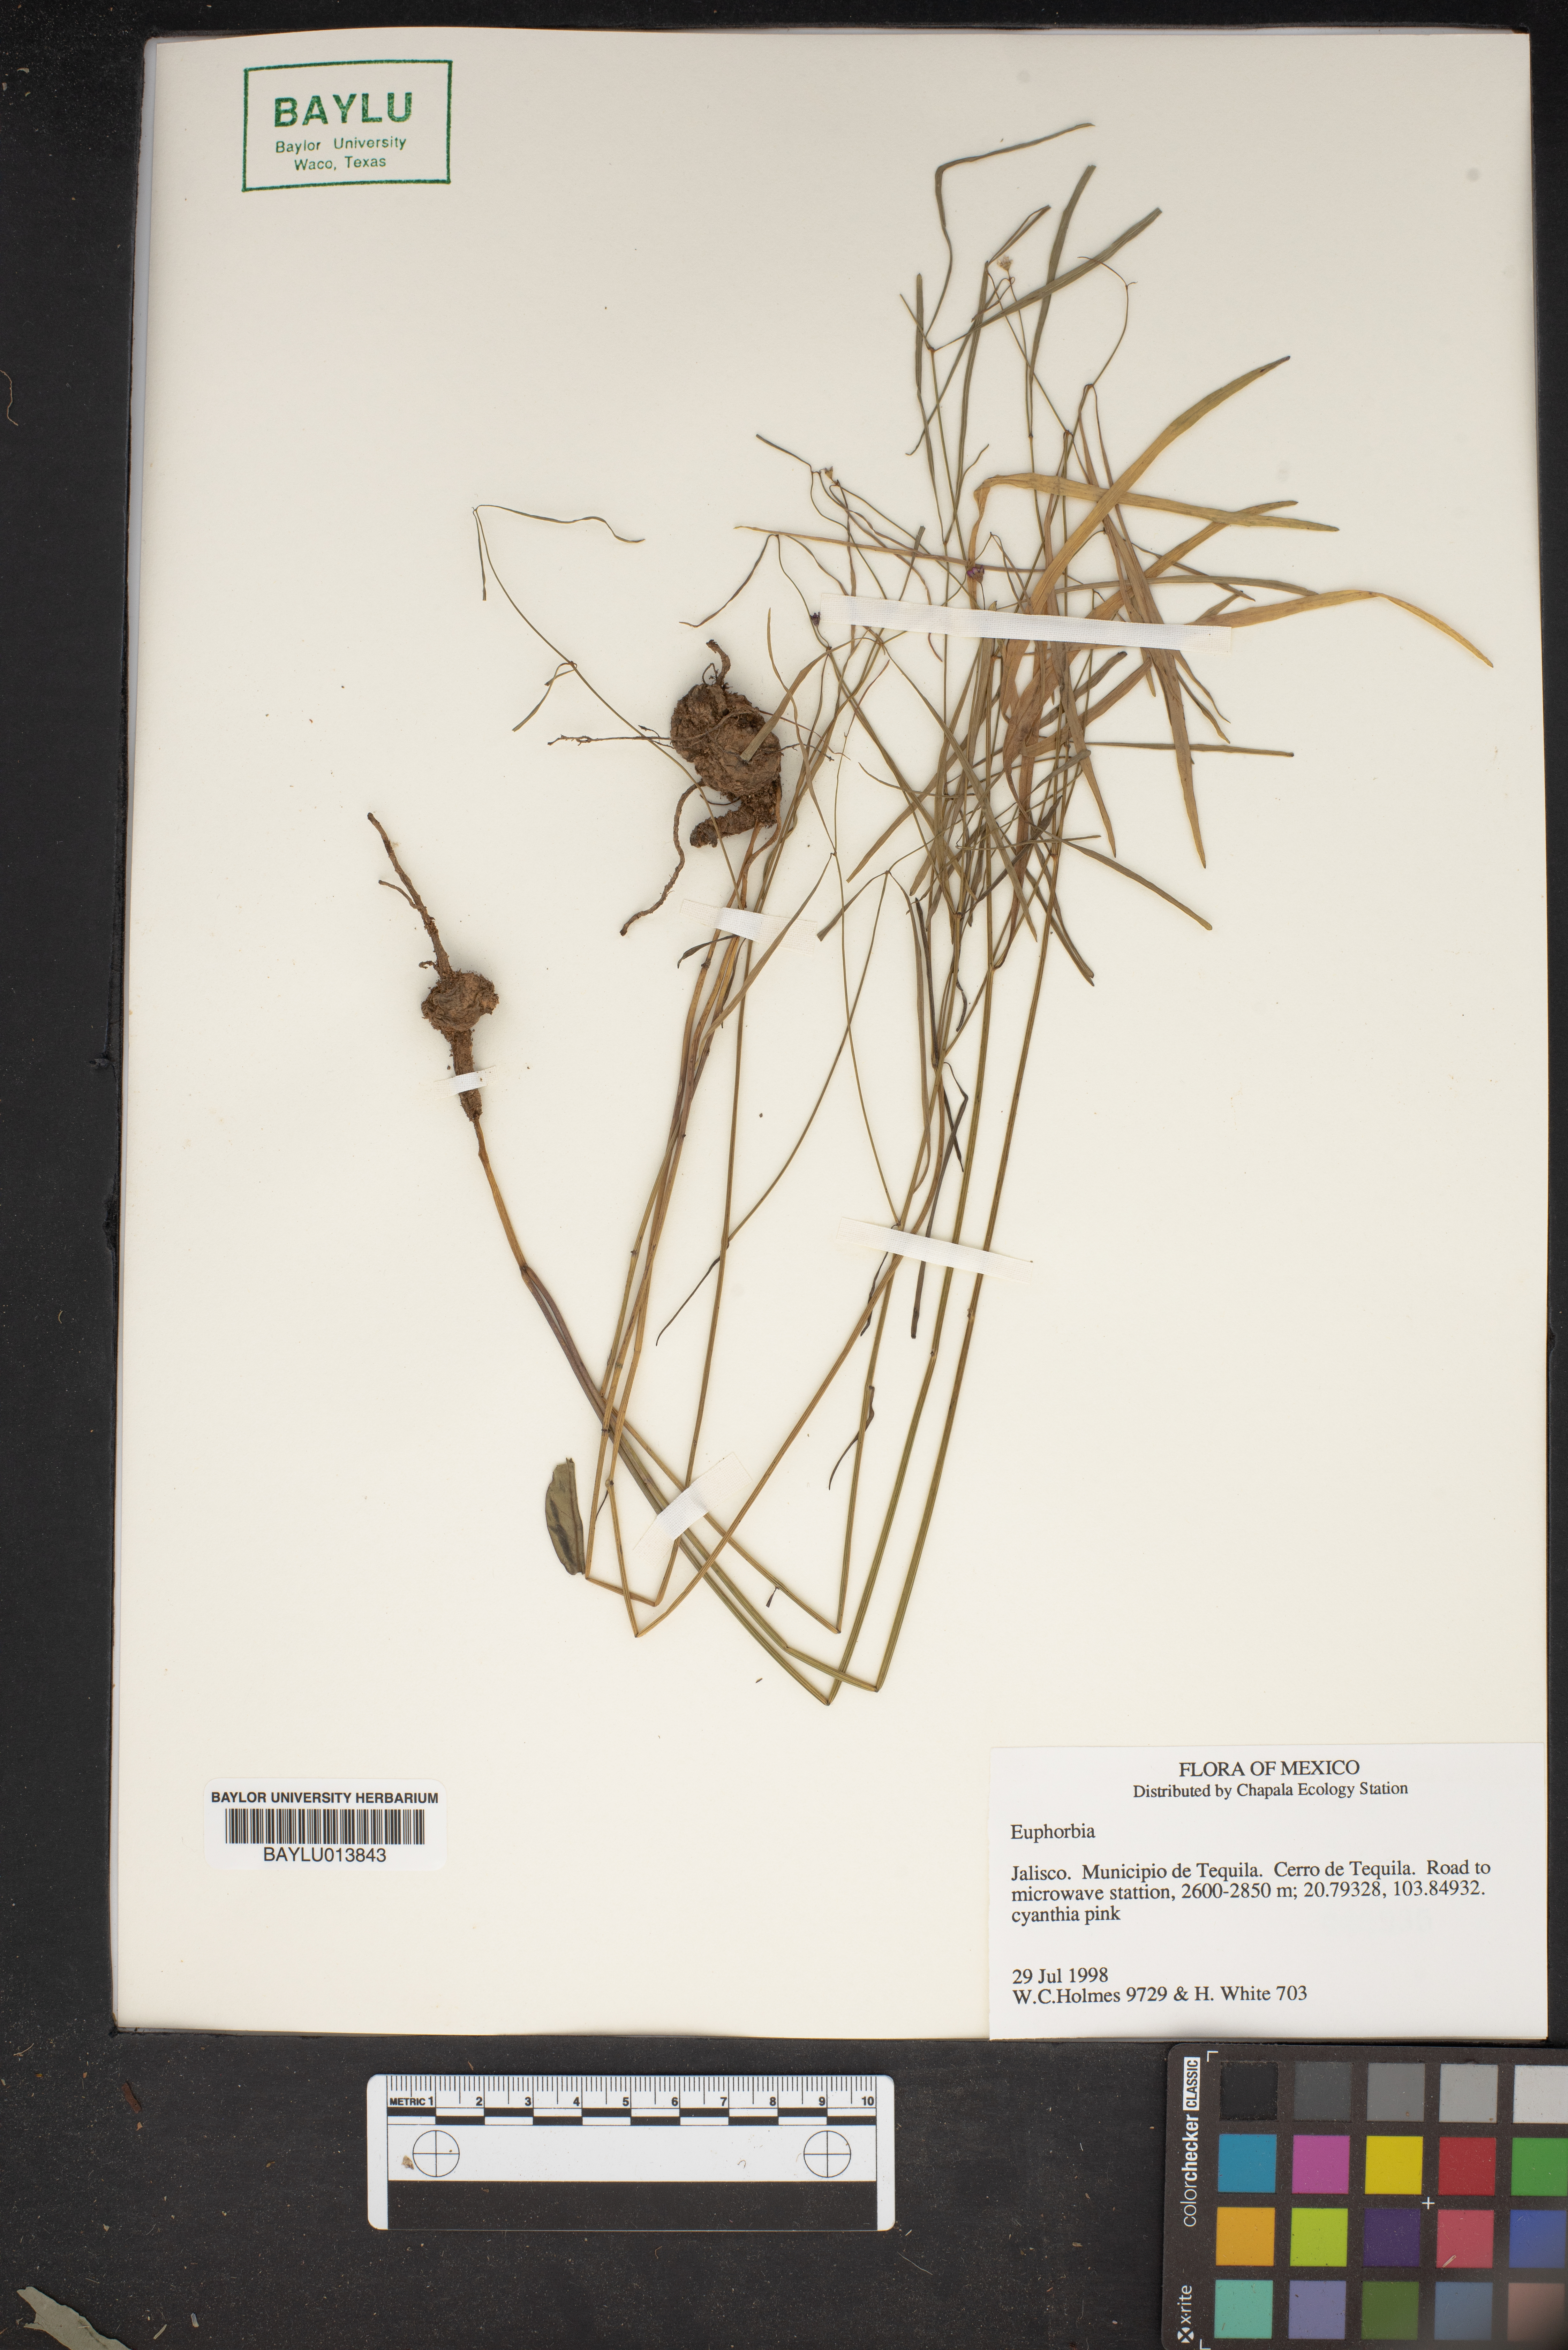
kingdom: Plantae
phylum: Tracheophyta
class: Magnoliopsida
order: Malpighiales
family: Euphorbiaceae
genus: Euphorbia
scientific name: Euphorbia
